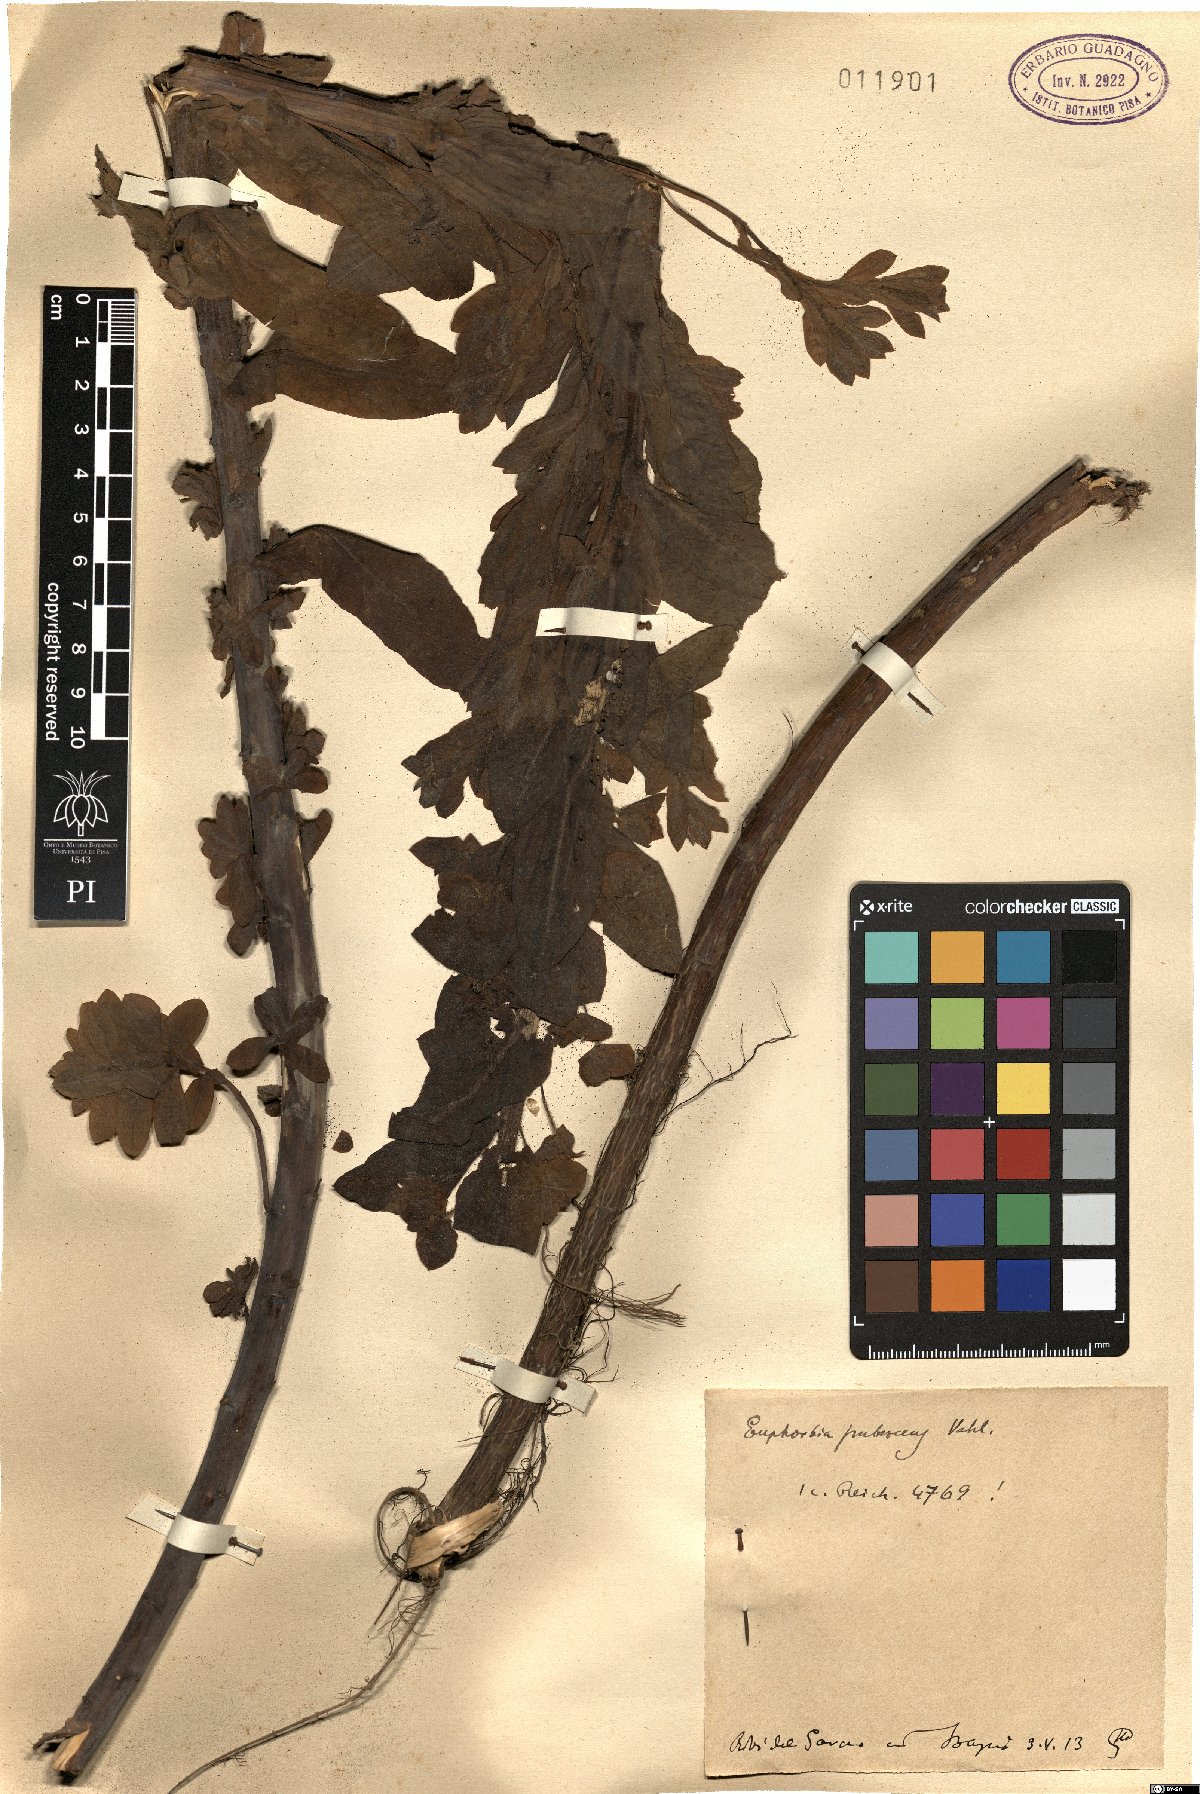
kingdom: Plantae
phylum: Tracheophyta
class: Magnoliopsida
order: Malpighiales
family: Euphorbiaceae
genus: Euphorbia
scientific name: Euphorbia hirsuta
